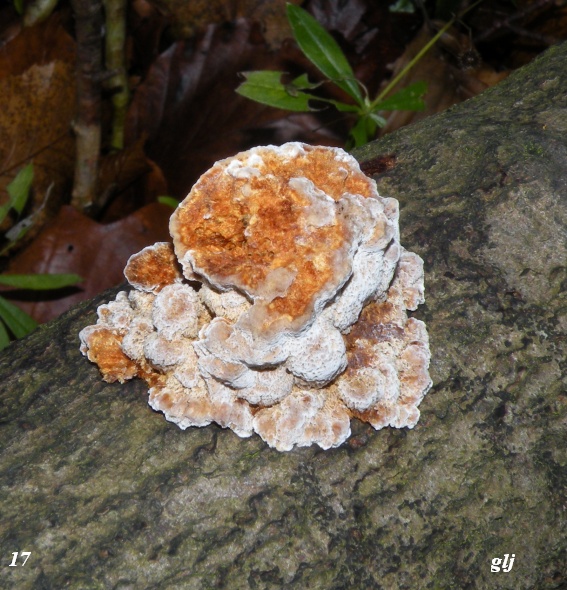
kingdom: Fungi
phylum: Basidiomycota
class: Agaricomycetes
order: Hymenochaetales
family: Hymenochaetaceae
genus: Mensularia
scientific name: Mensularia nodulosa
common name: bøge-spejlporesvamp
